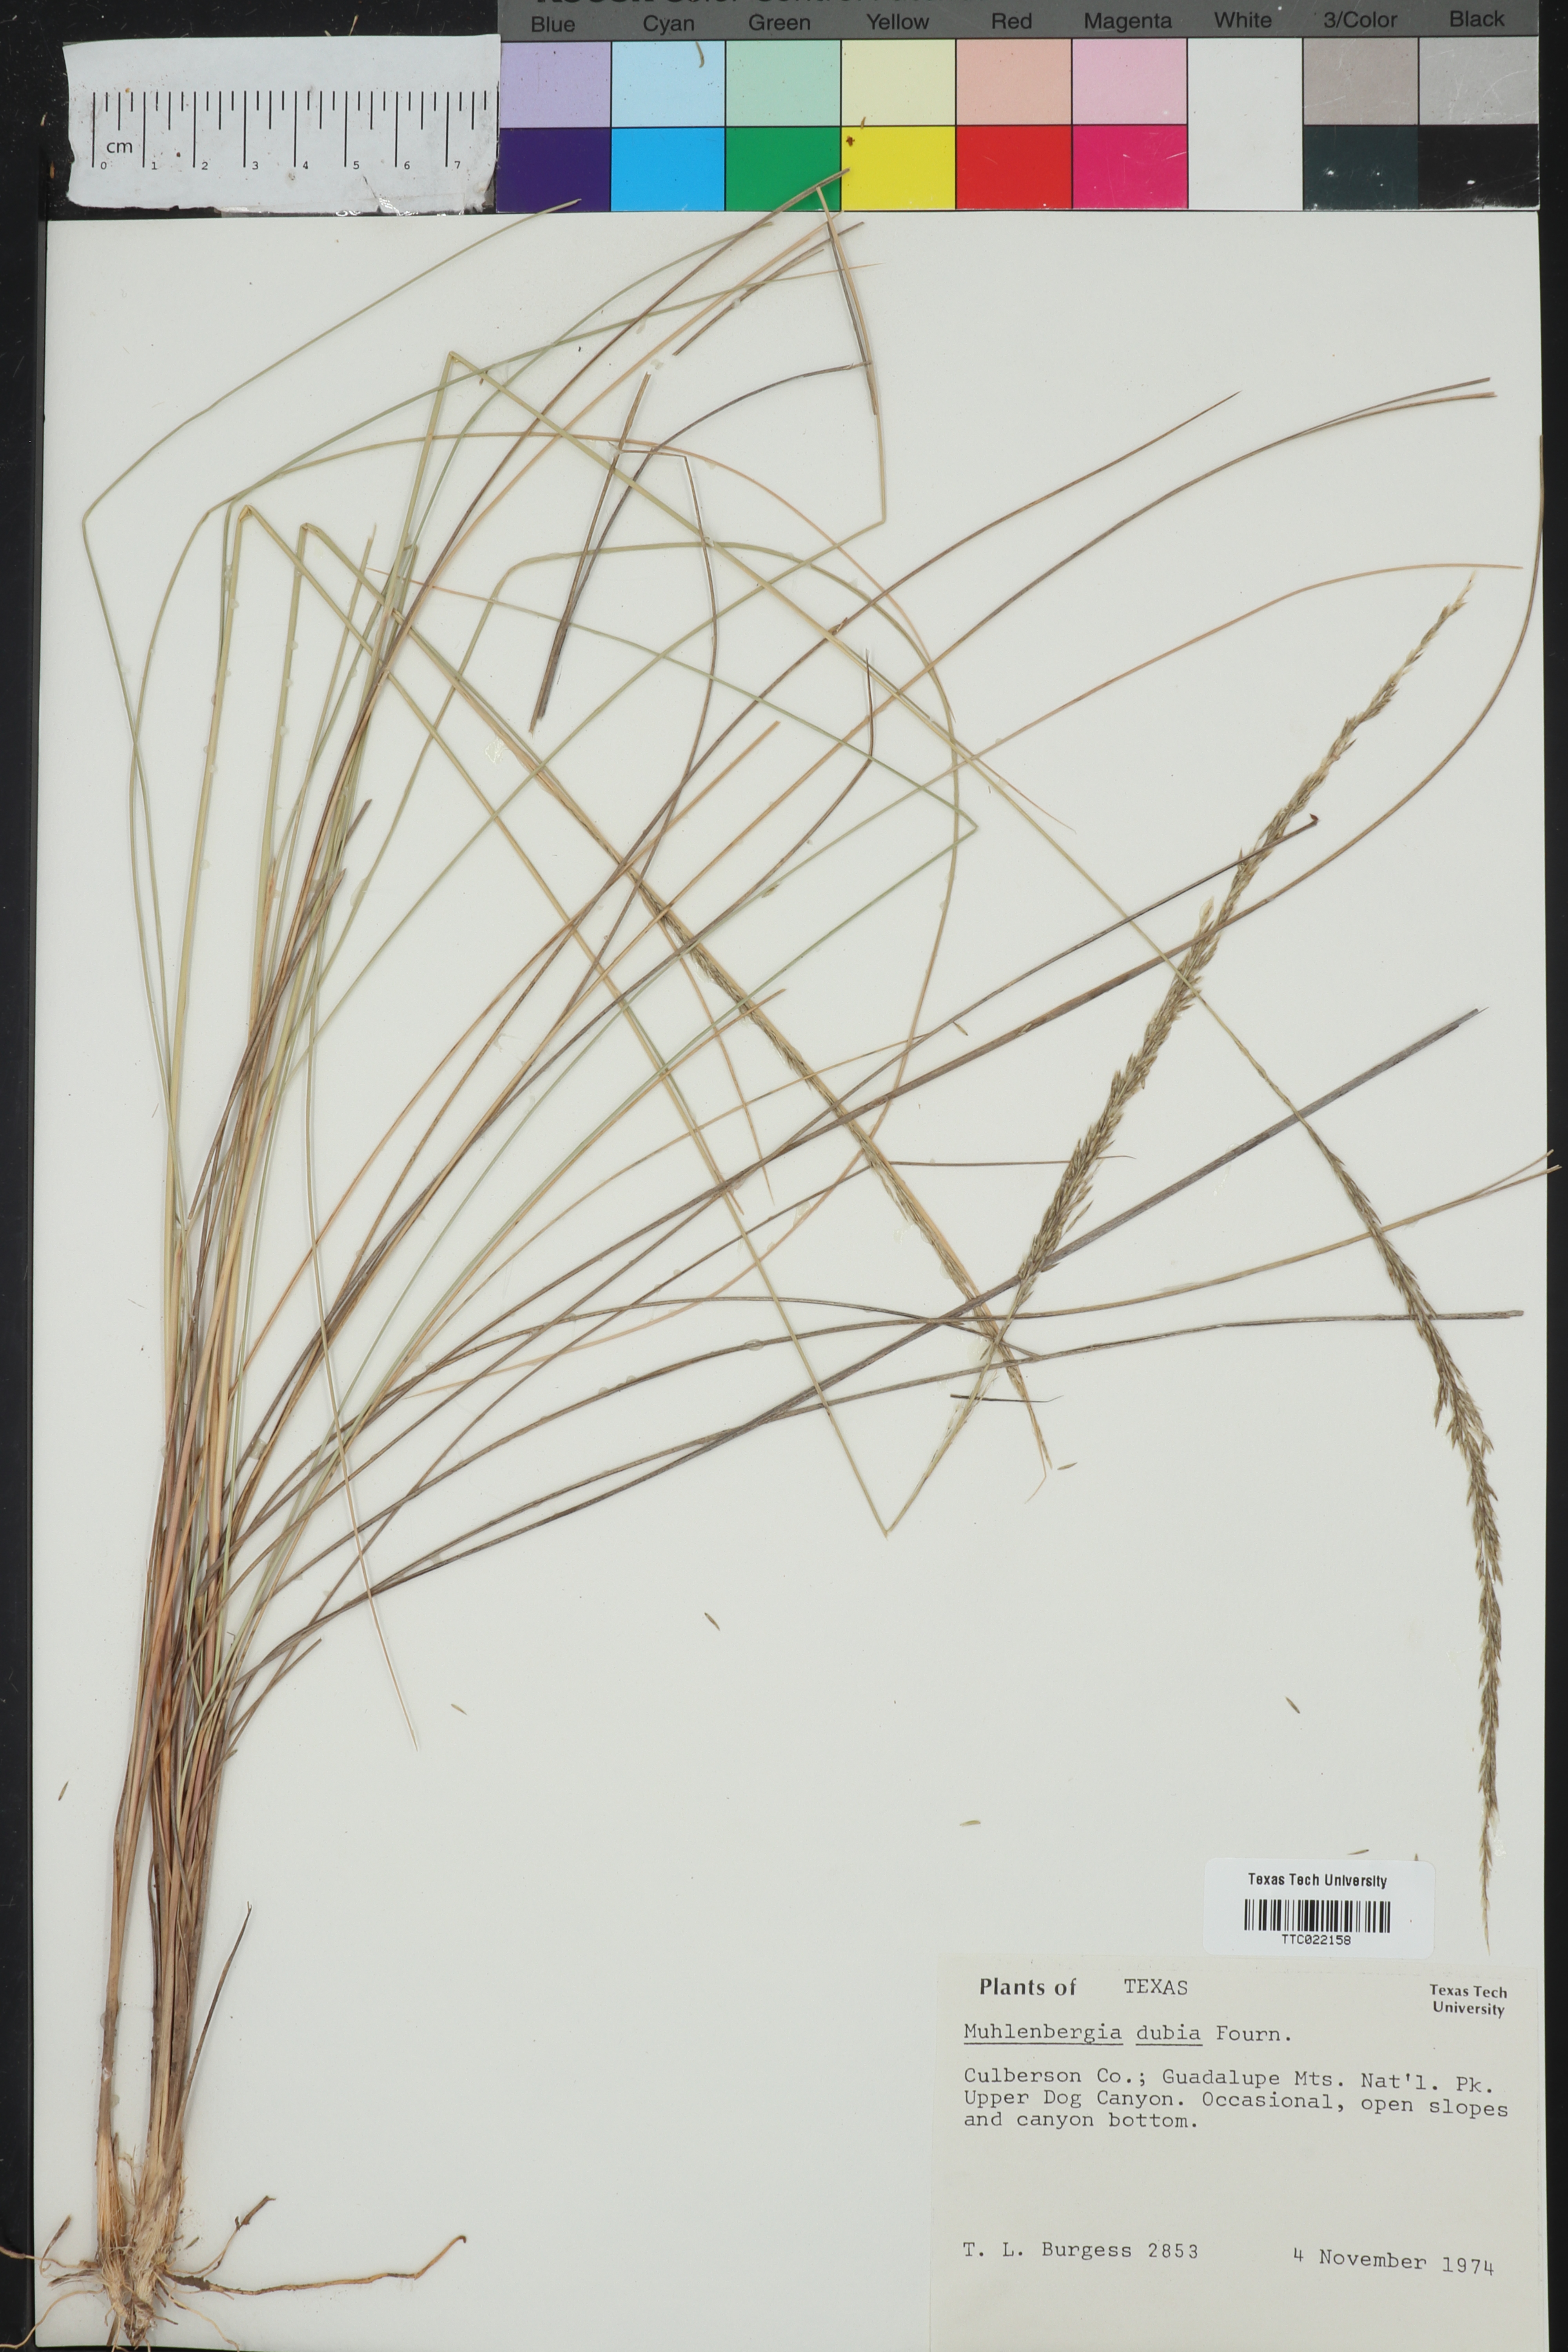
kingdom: Plantae
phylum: Tracheophyta
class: Liliopsida
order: Poales
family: Poaceae
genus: Muhlenbergia
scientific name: Muhlenbergia dubia
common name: Pine muhly
